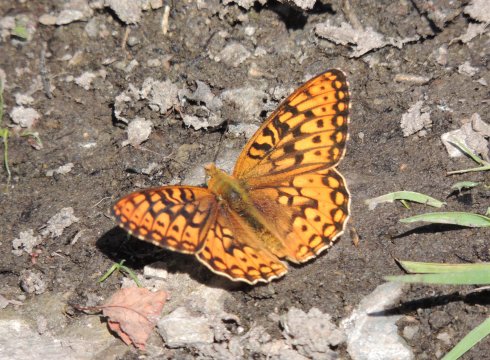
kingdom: Animalia
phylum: Arthropoda
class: Insecta
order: Lepidoptera
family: Nymphalidae
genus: Speyeria
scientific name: Speyeria
